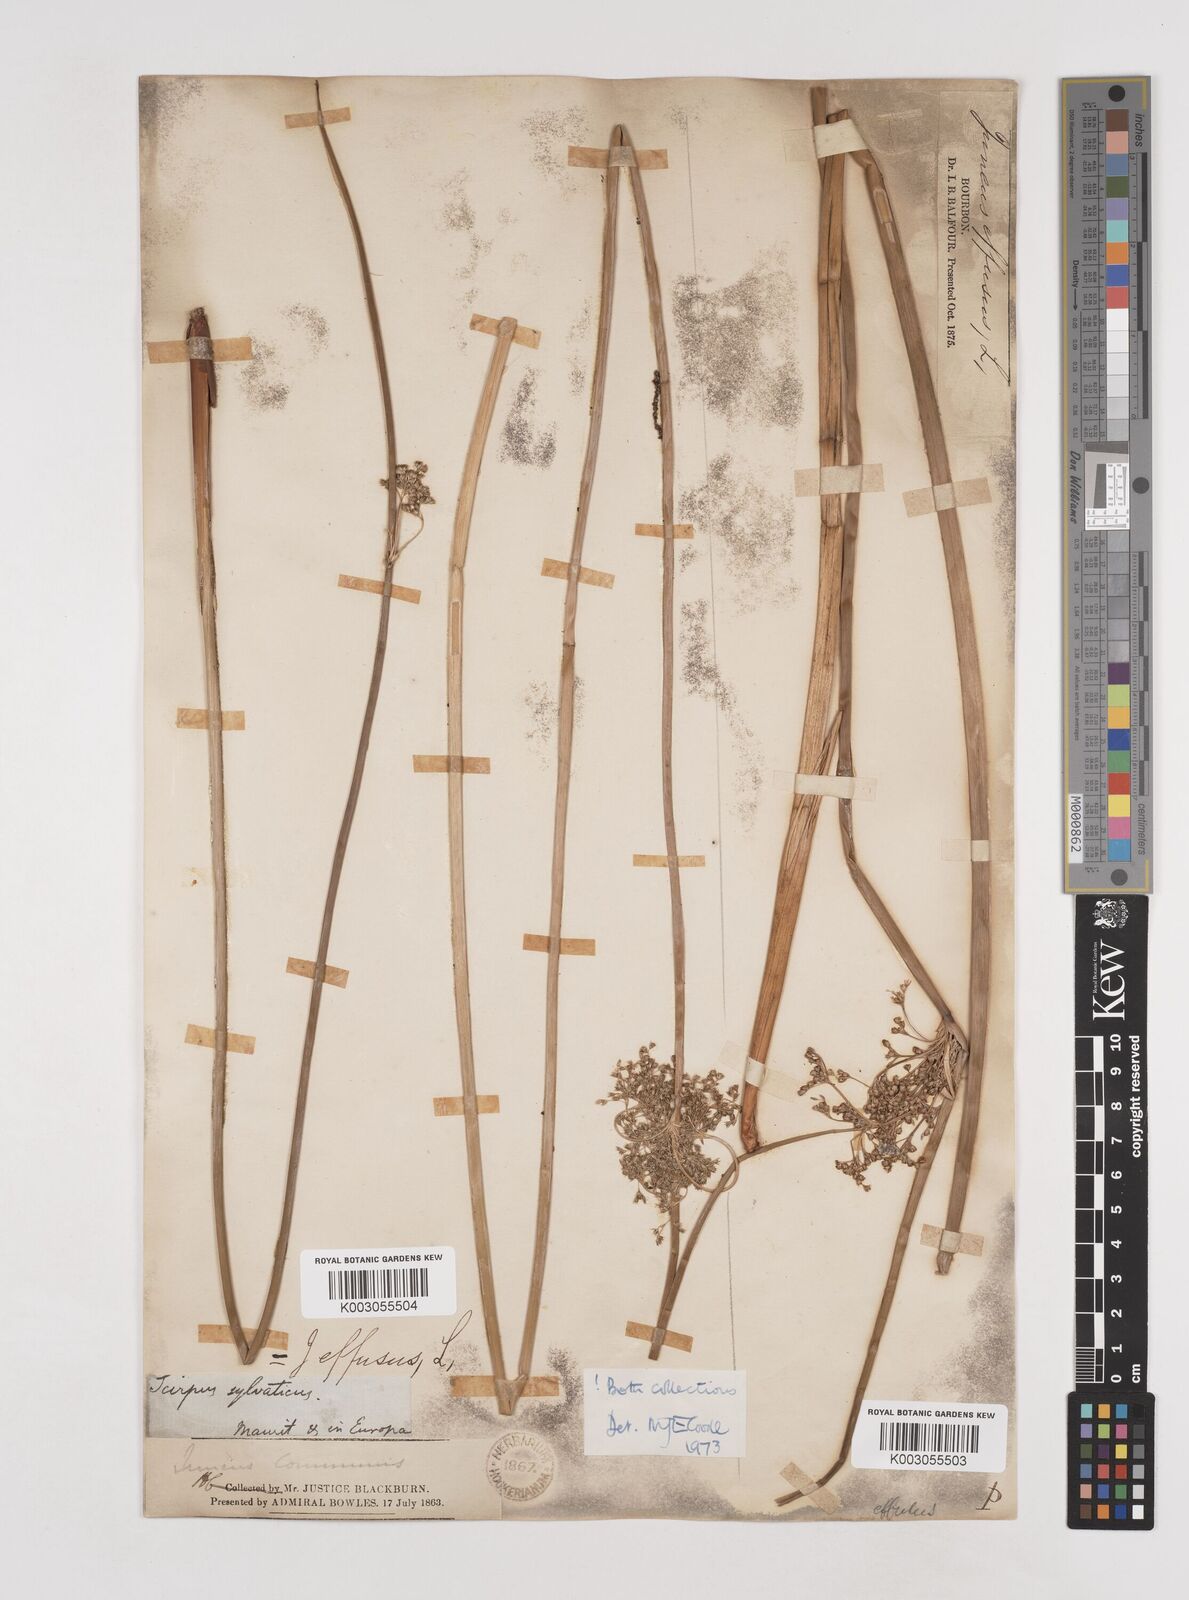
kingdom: Plantae
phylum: Tracheophyta
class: Liliopsida
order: Poales
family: Juncaceae
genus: Juncus
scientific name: Juncus effusus
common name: Soft rush
